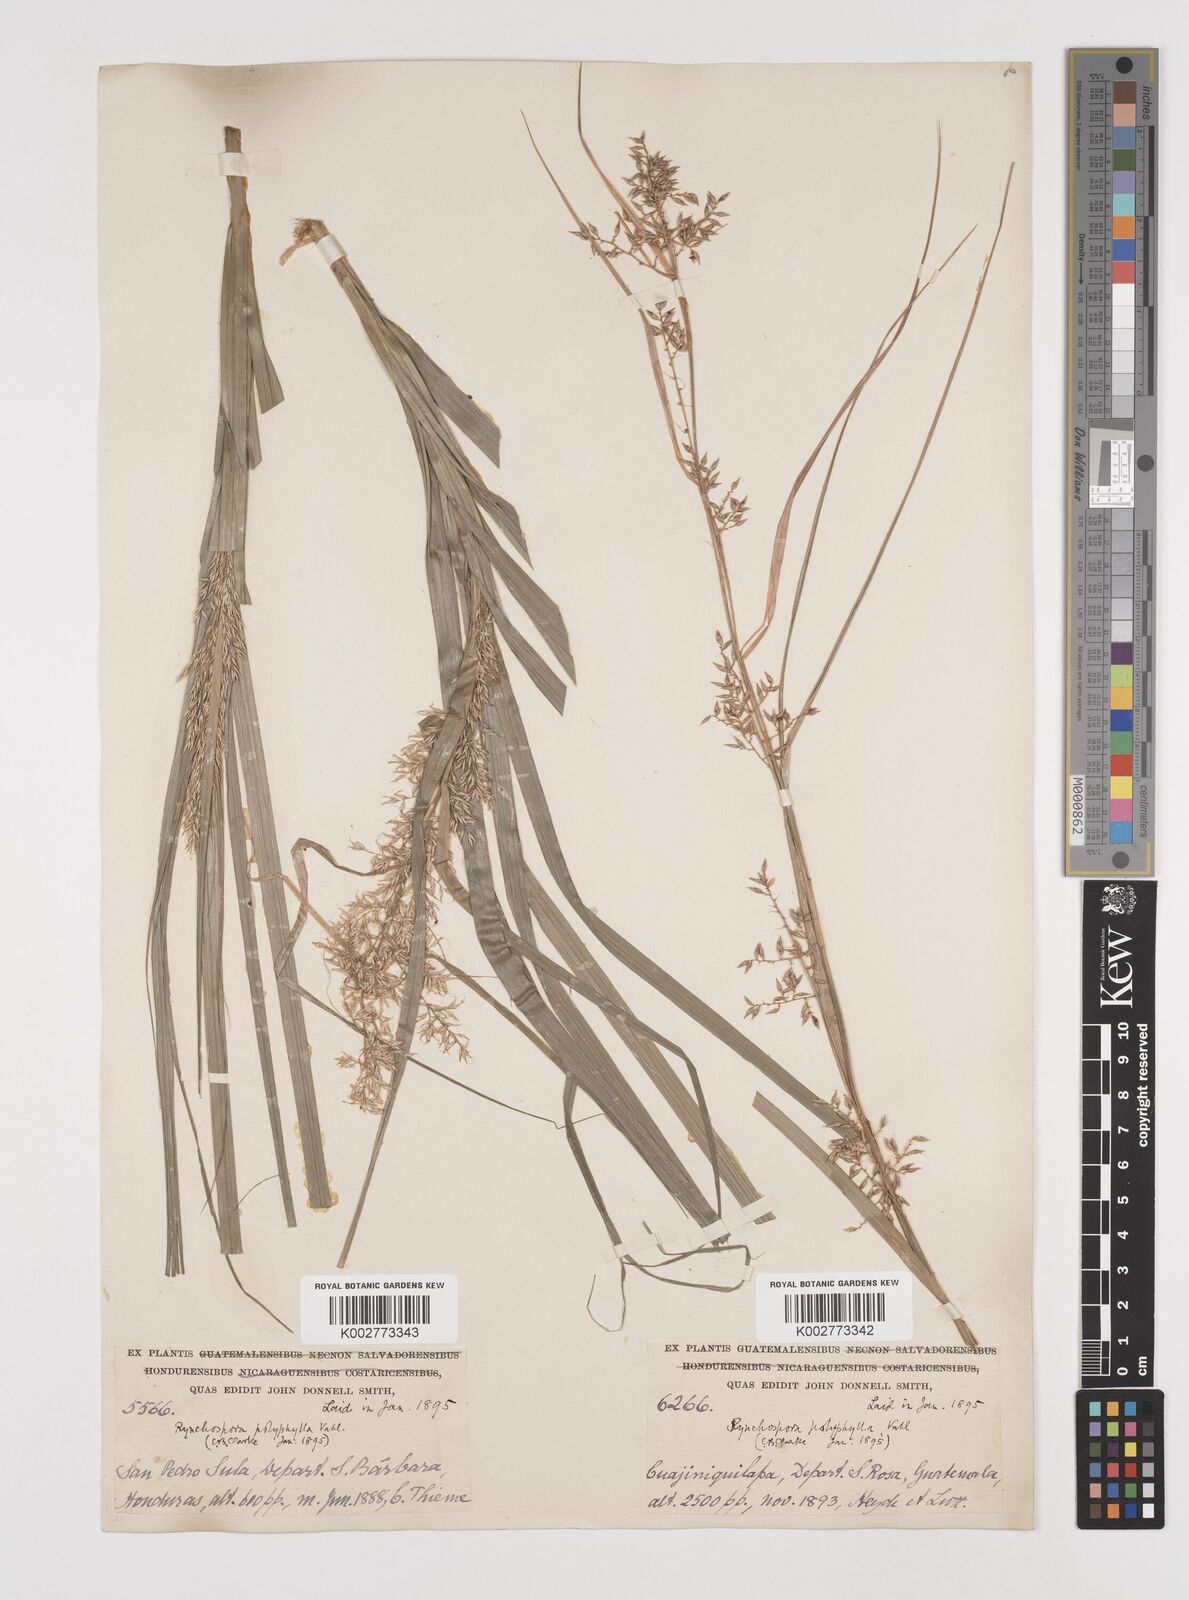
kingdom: Plantae
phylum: Tracheophyta
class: Liliopsida
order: Poales
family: Cyperaceae
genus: Rhynchospora
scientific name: Rhynchospora polyphylla
